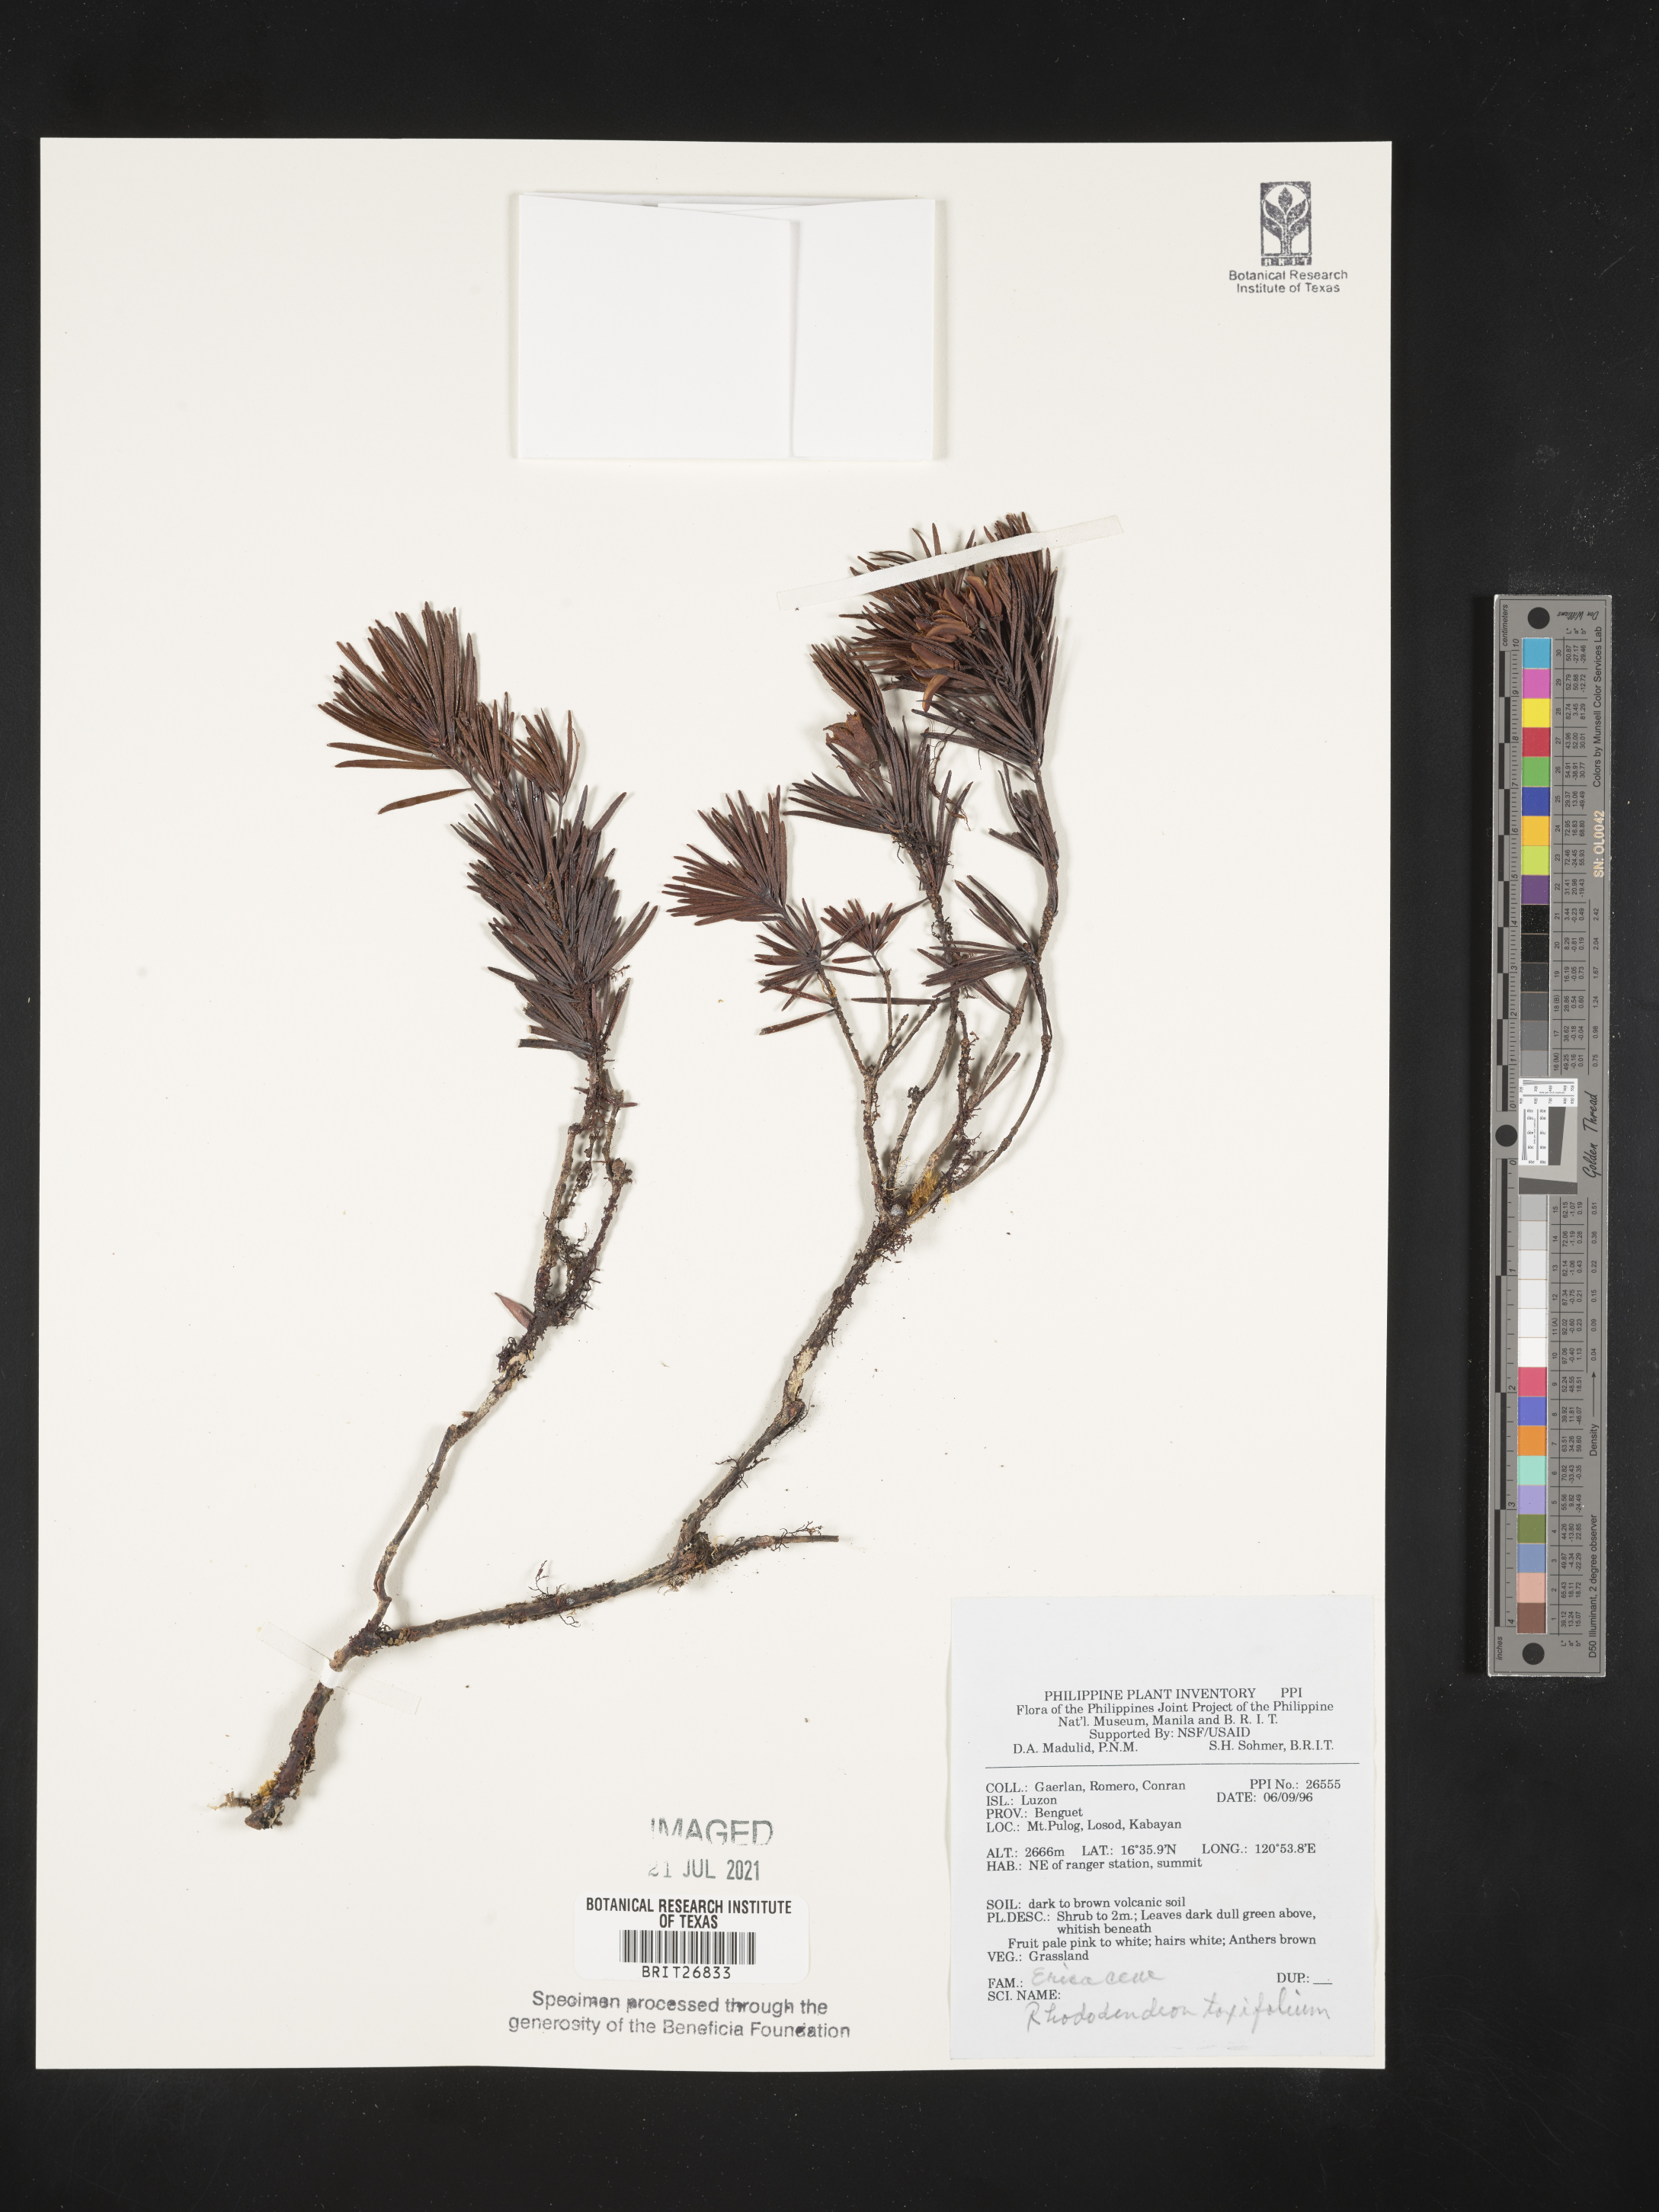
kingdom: Plantae
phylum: Tracheophyta
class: Magnoliopsida
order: Ericales
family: Ericaceae
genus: Rhododendron
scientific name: Rhododendron taxifolium
